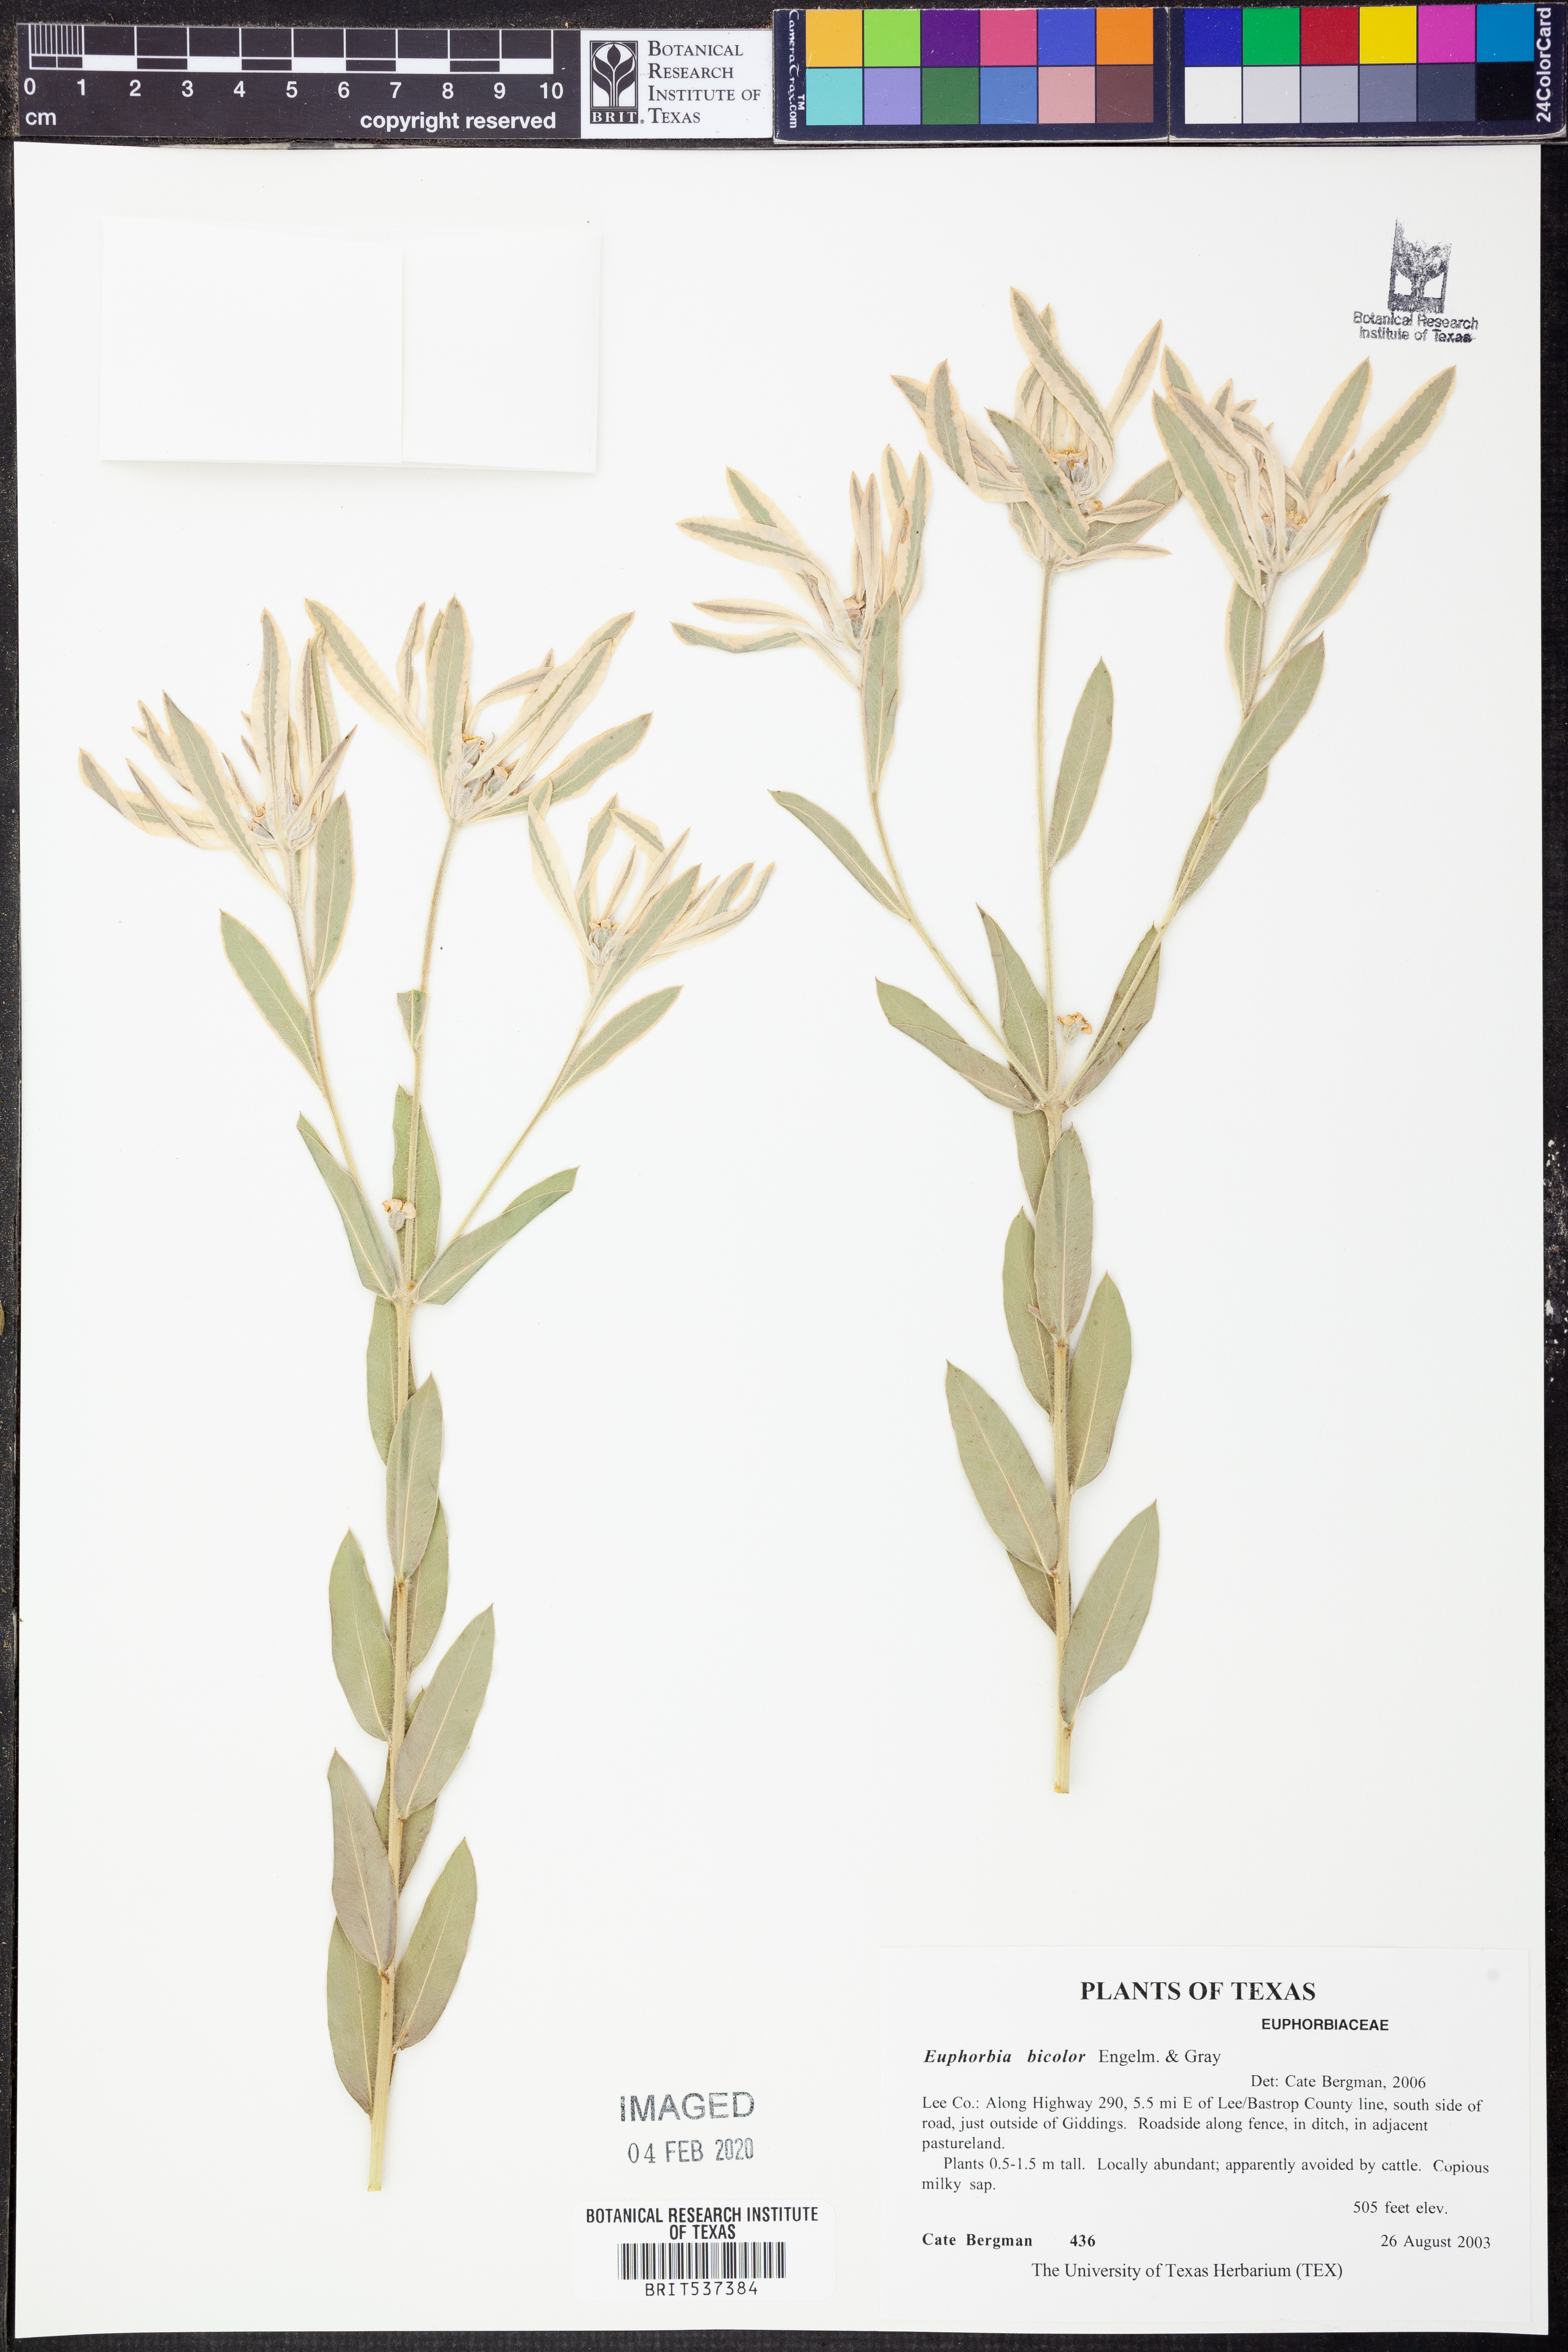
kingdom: Plantae
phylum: Tracheophyta
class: Magnoliopsida
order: Malpighiales
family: Euphorbiaceae
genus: Euphorbia
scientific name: Euphorbia bicolor
